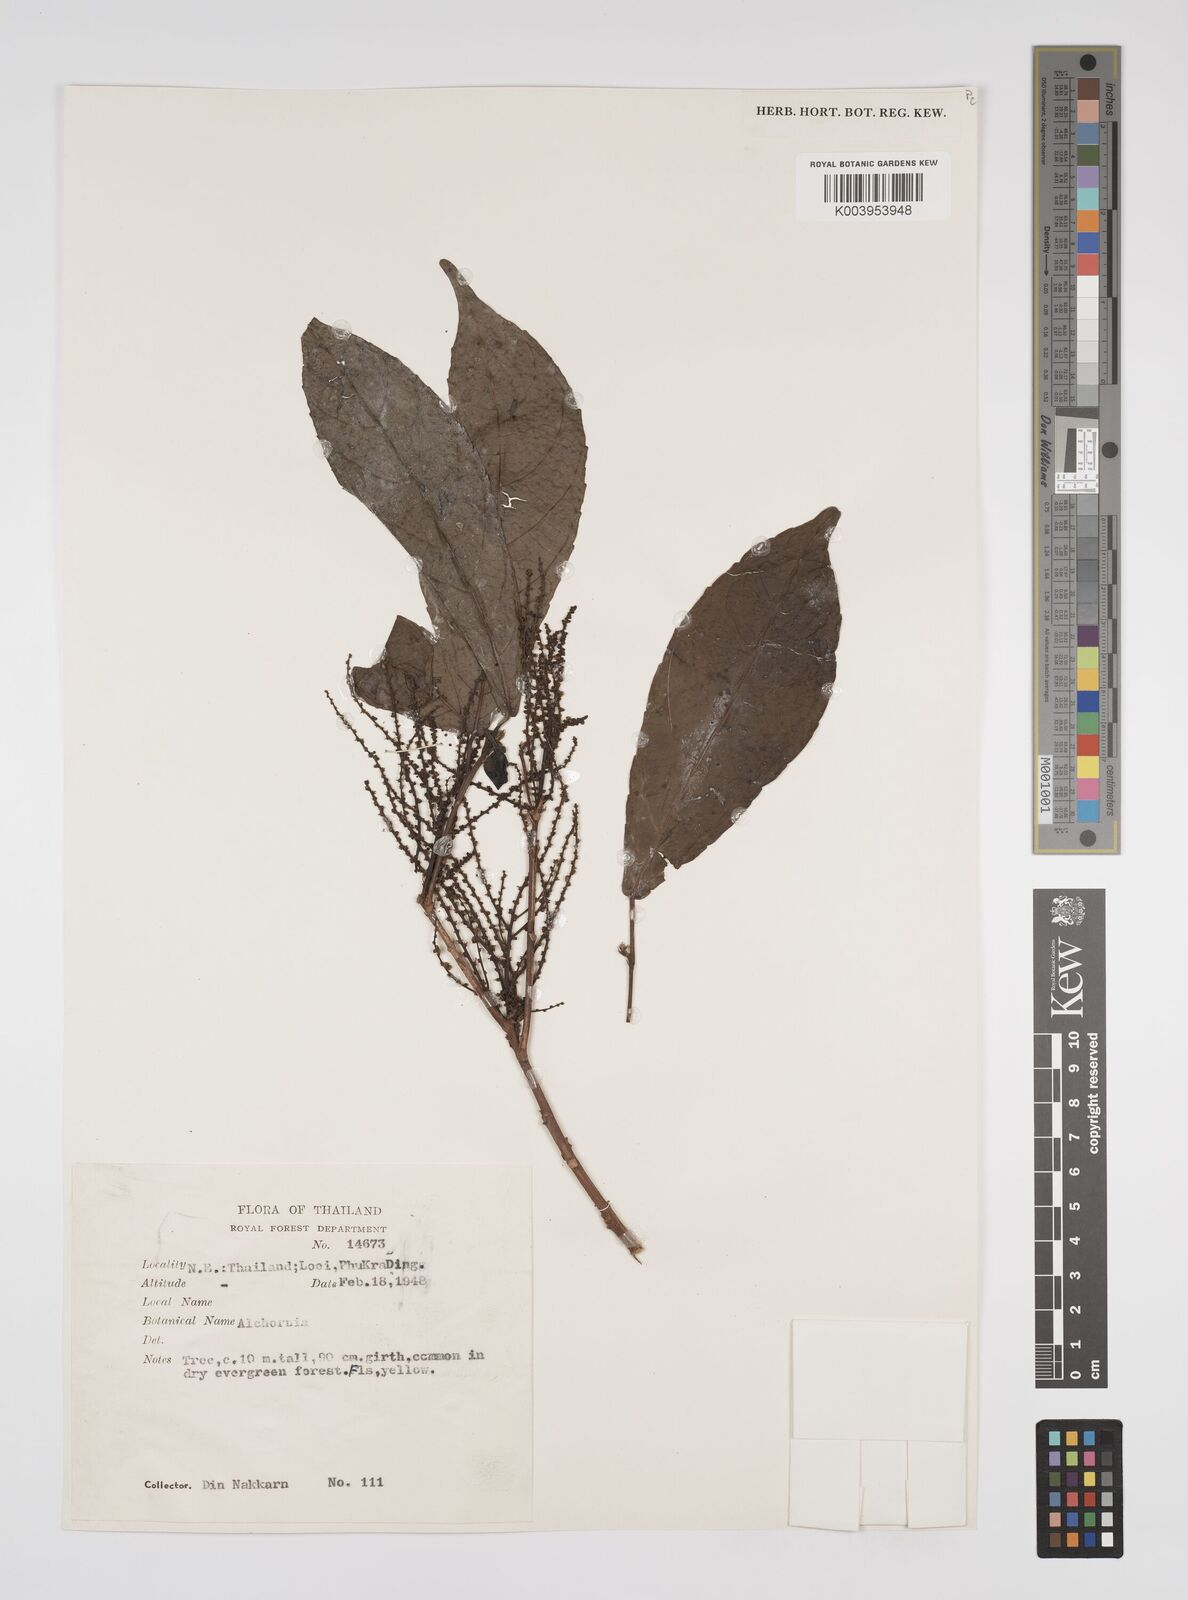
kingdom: Plantae
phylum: Tracheophyta
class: Magnoliopsida
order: Malpighiales
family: Euphorbiaceae
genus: Alchornea
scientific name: Alchornea rugosa
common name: Alchorntree
